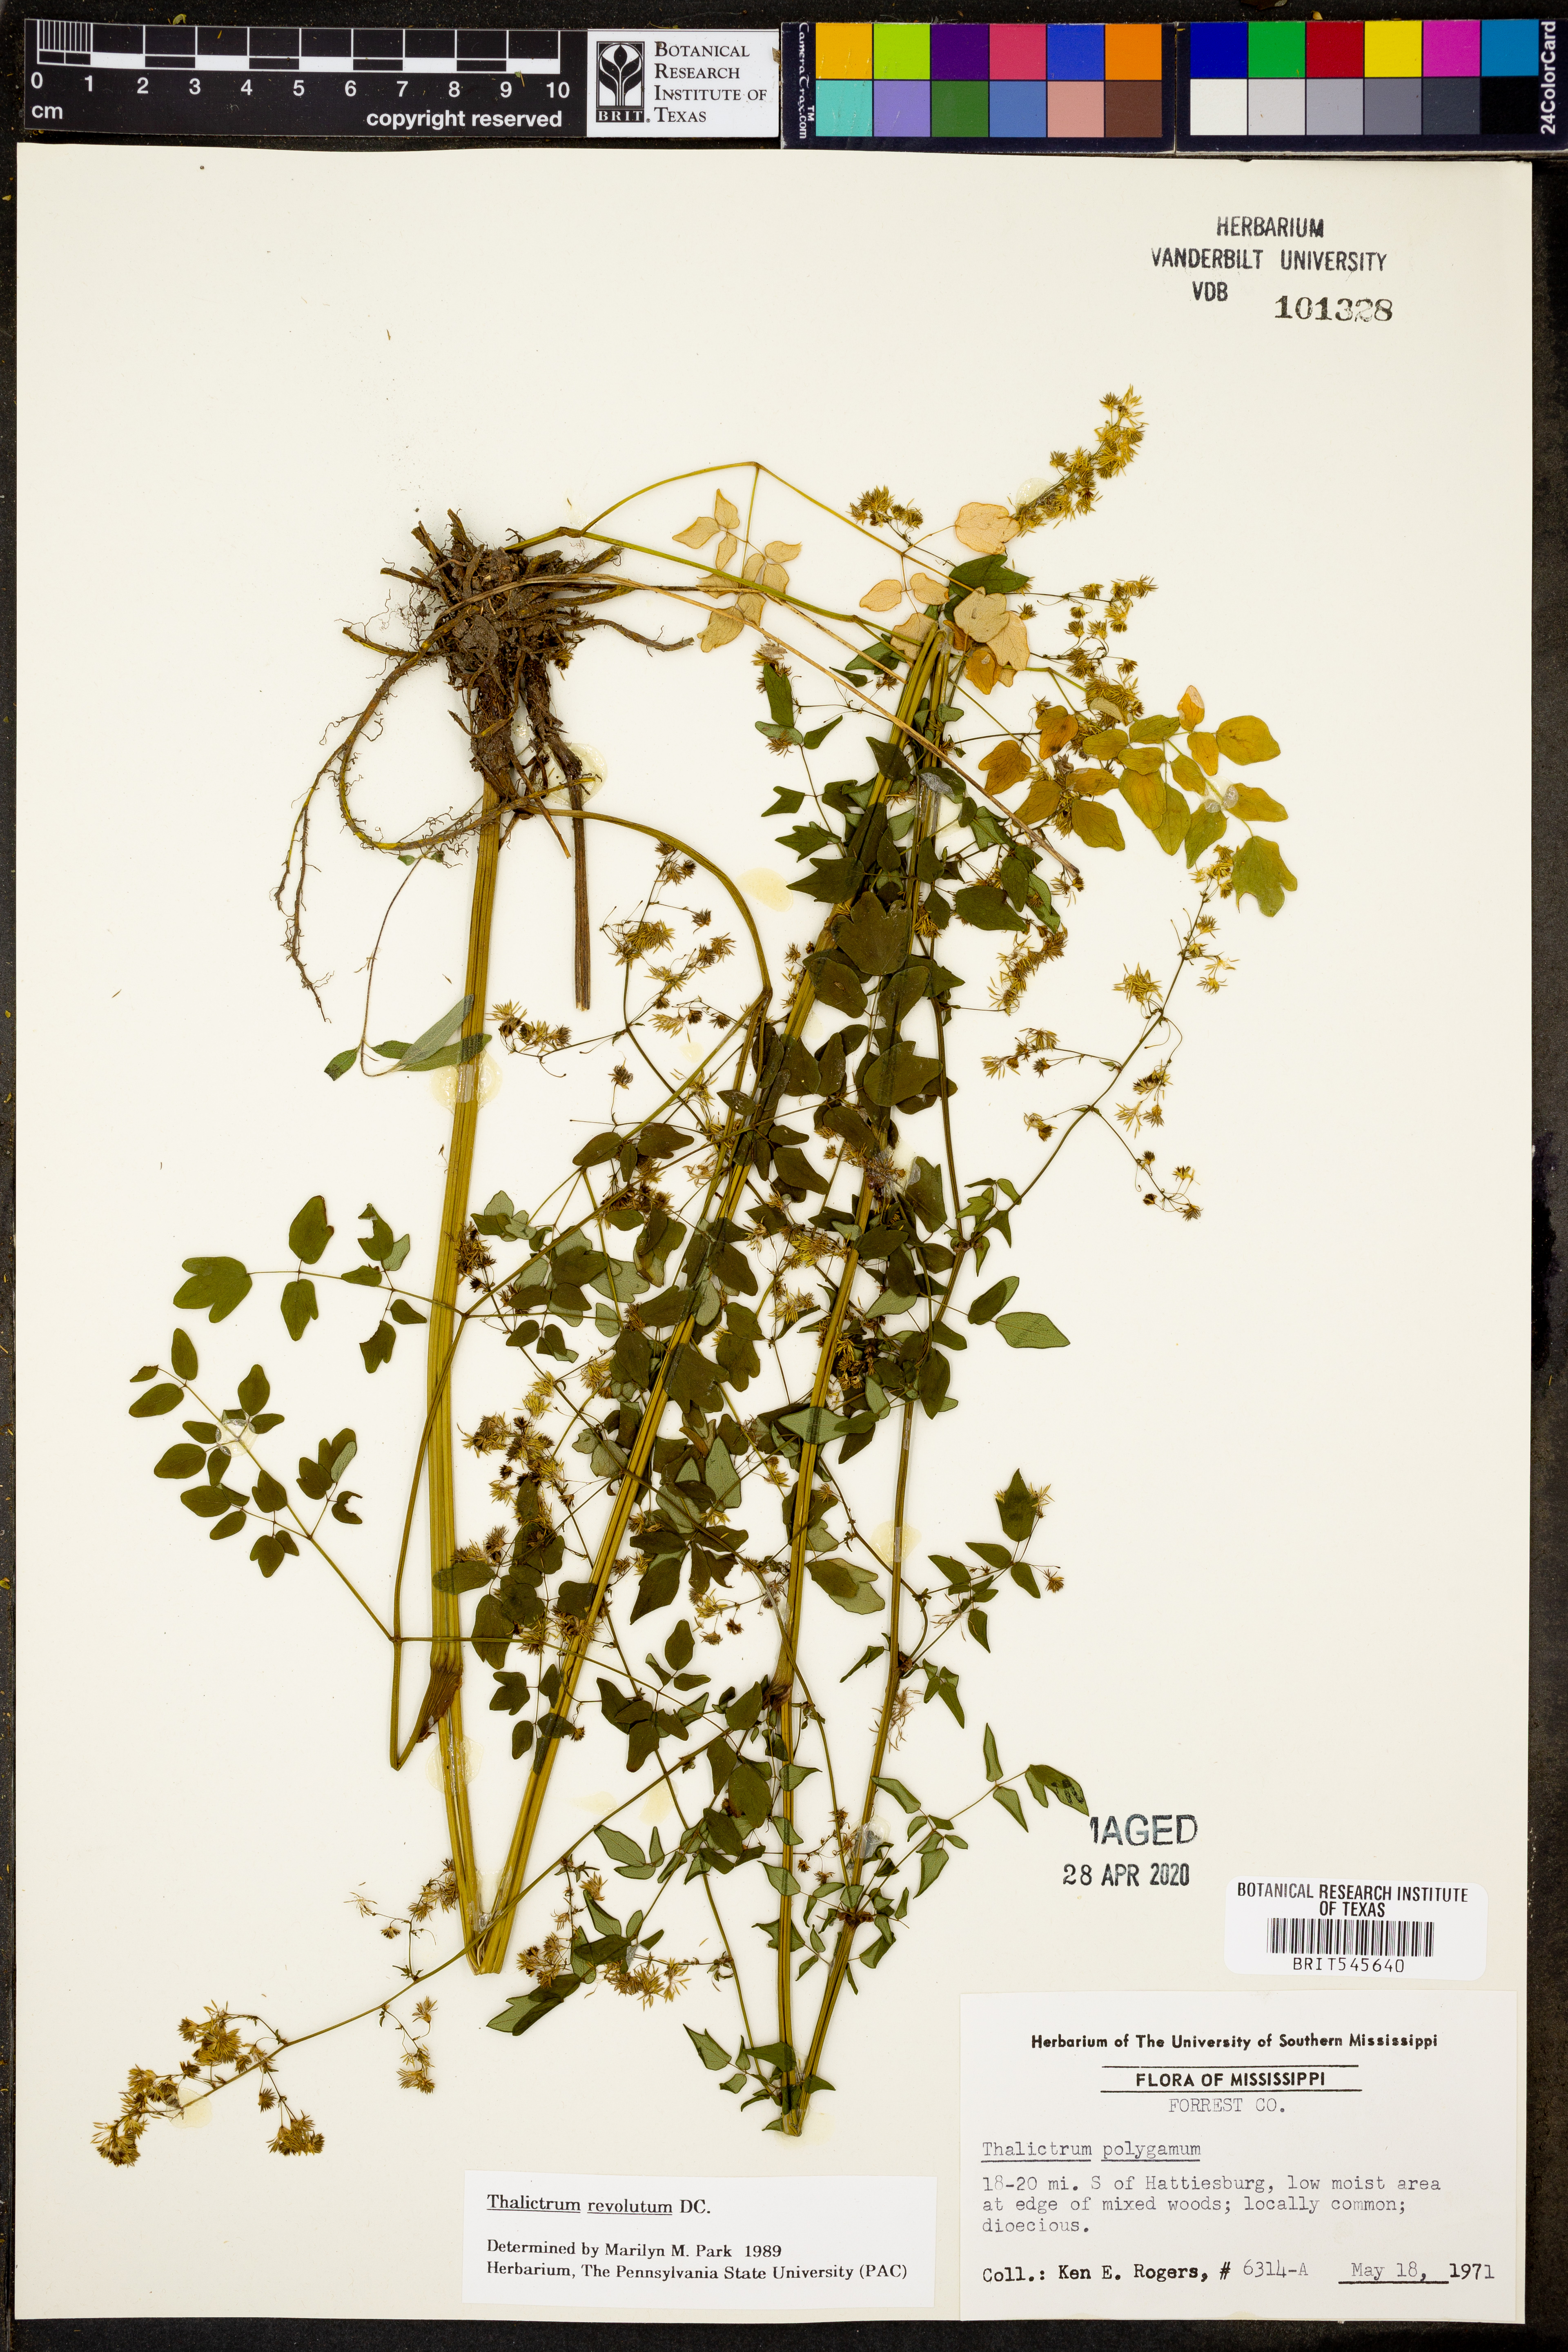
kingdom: Plantae
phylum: Tracheophyta
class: Magnoliopsida
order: Ranunculales
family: Ranunculaceae
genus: Thalictrum
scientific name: Thalictrum revolutum
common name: Waxy meadow-rue
